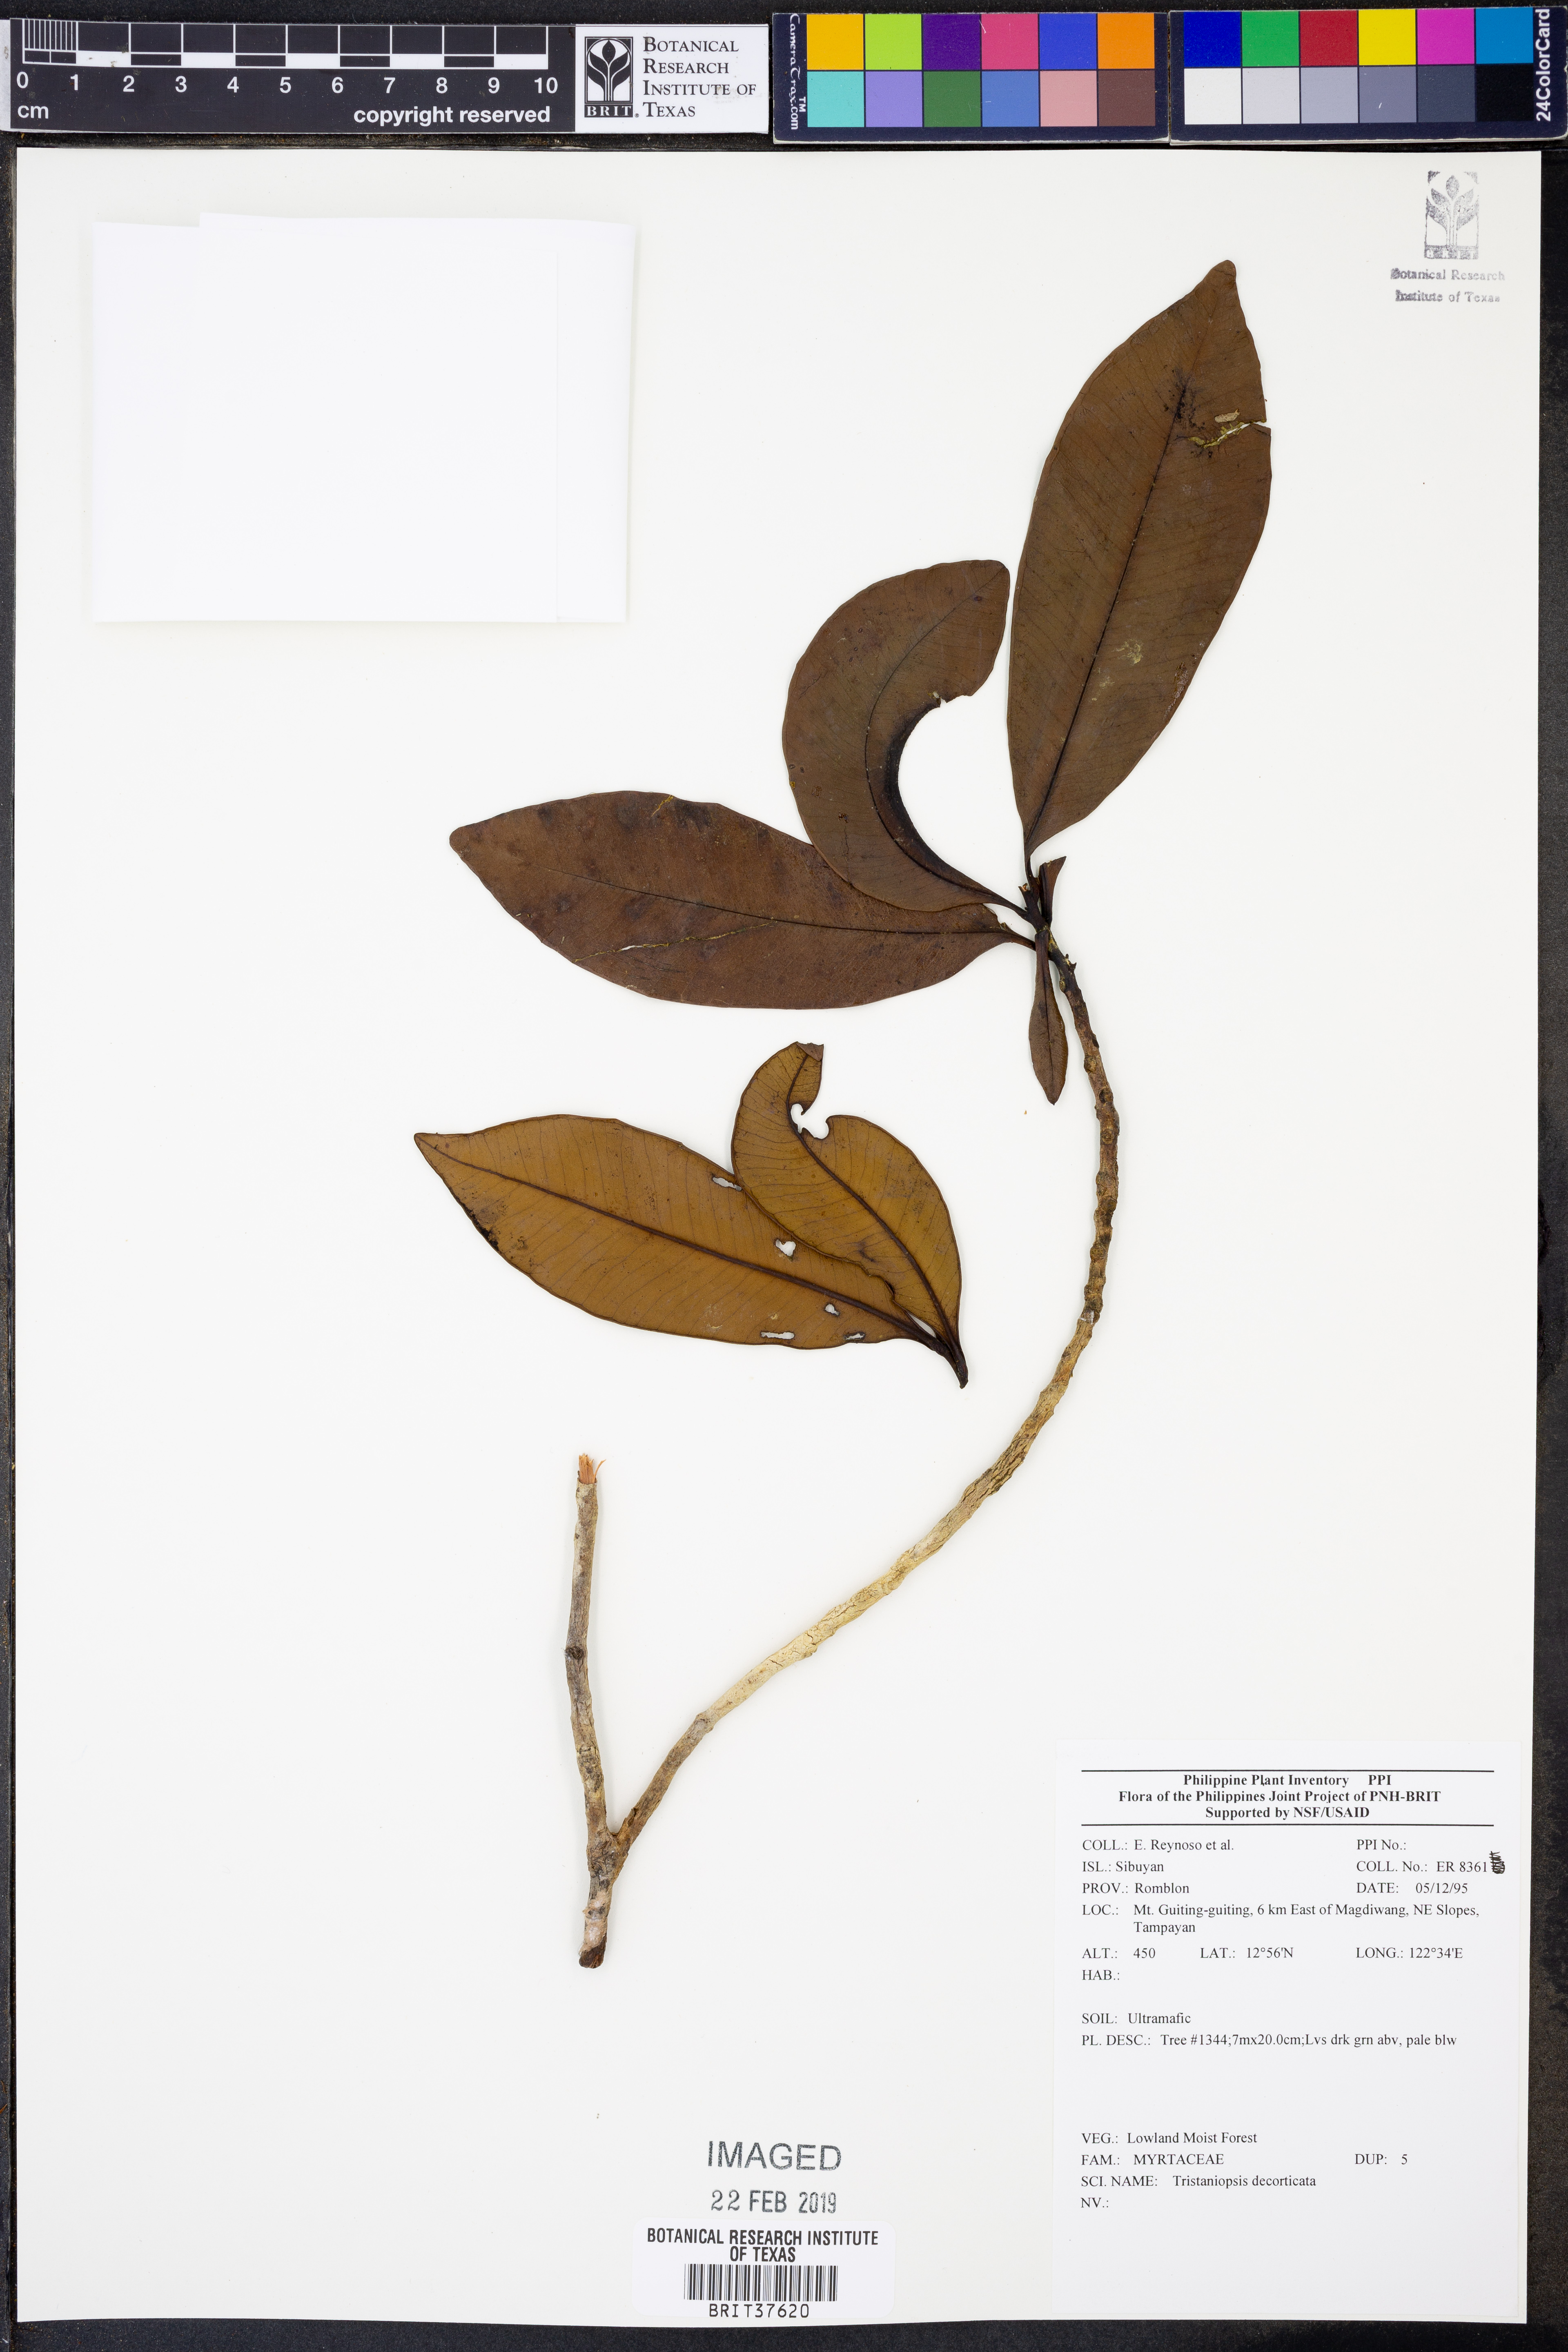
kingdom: Plantae
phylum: Tracheophyta
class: Magnoliopsida
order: Myrtales
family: Myrtaceae
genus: Tristaniopsis
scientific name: Tristaniopsis decorticata
